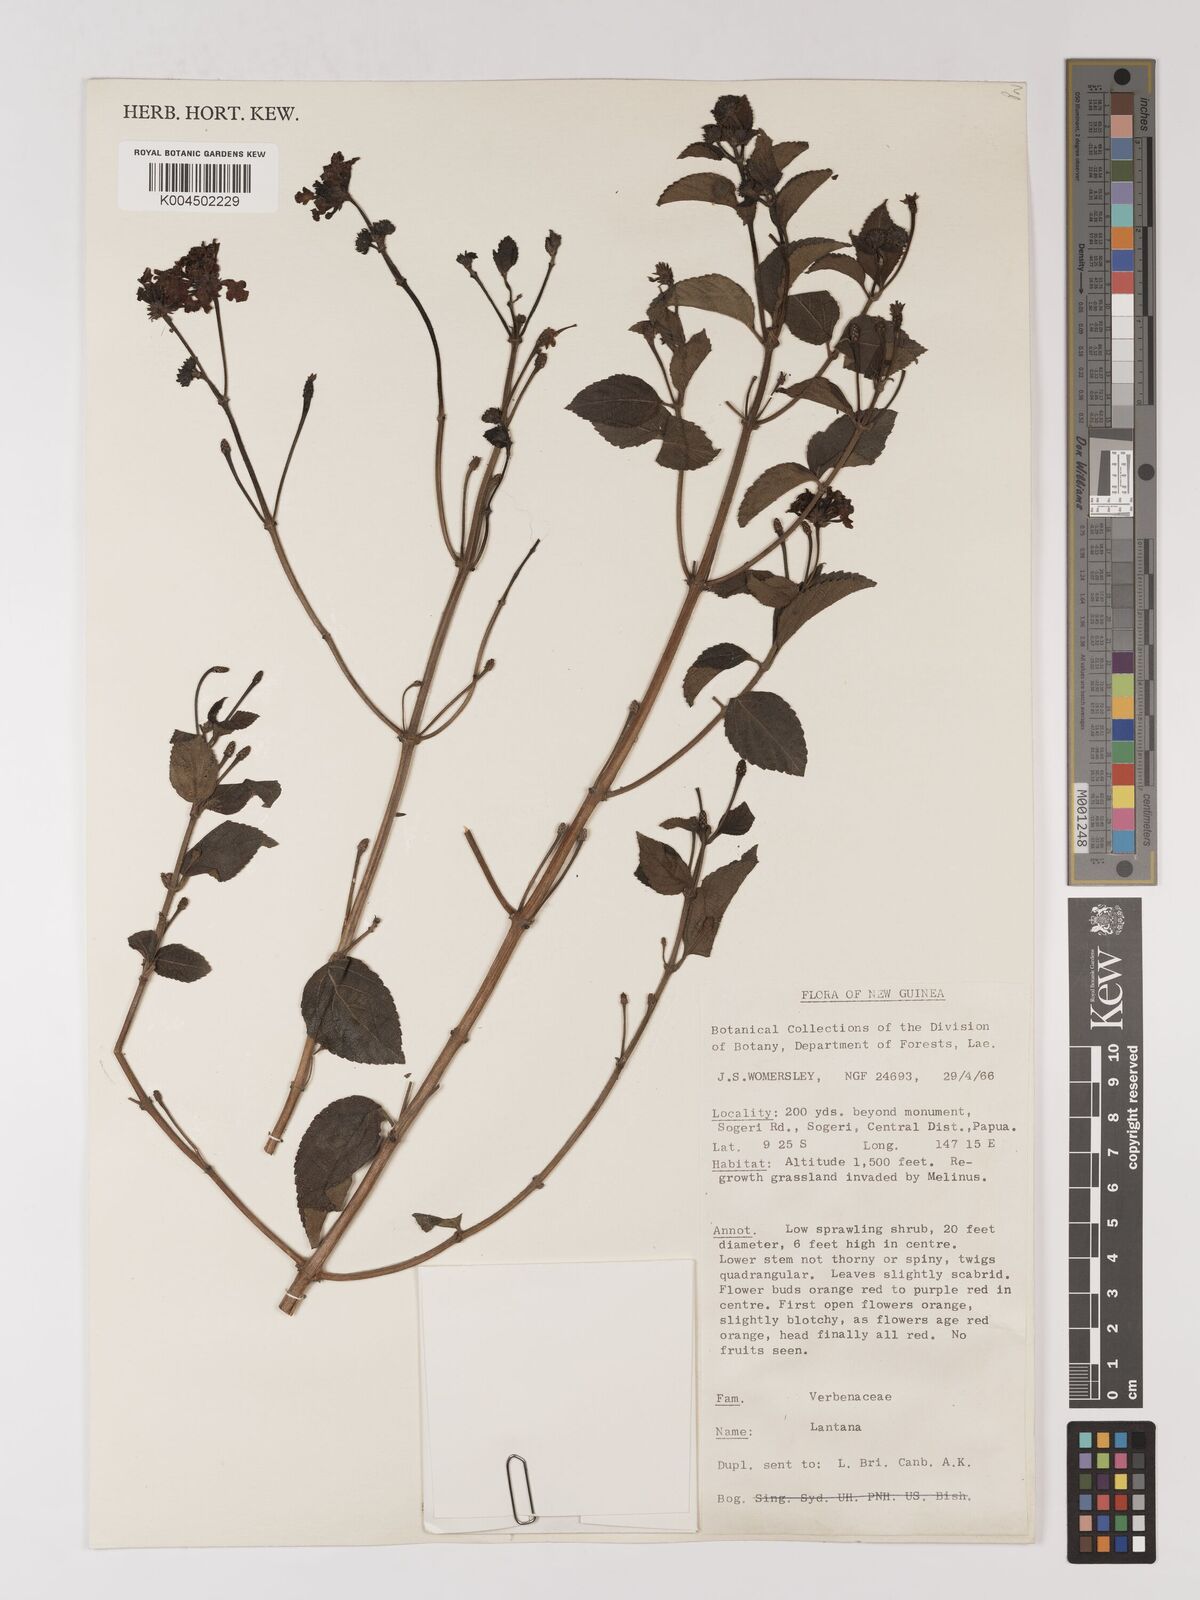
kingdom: Plantae
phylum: Tracheophyta
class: Magnoliopsida
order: Lamiales
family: Verbenaceae
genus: Lantana
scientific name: Lantana camara
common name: Lantana
